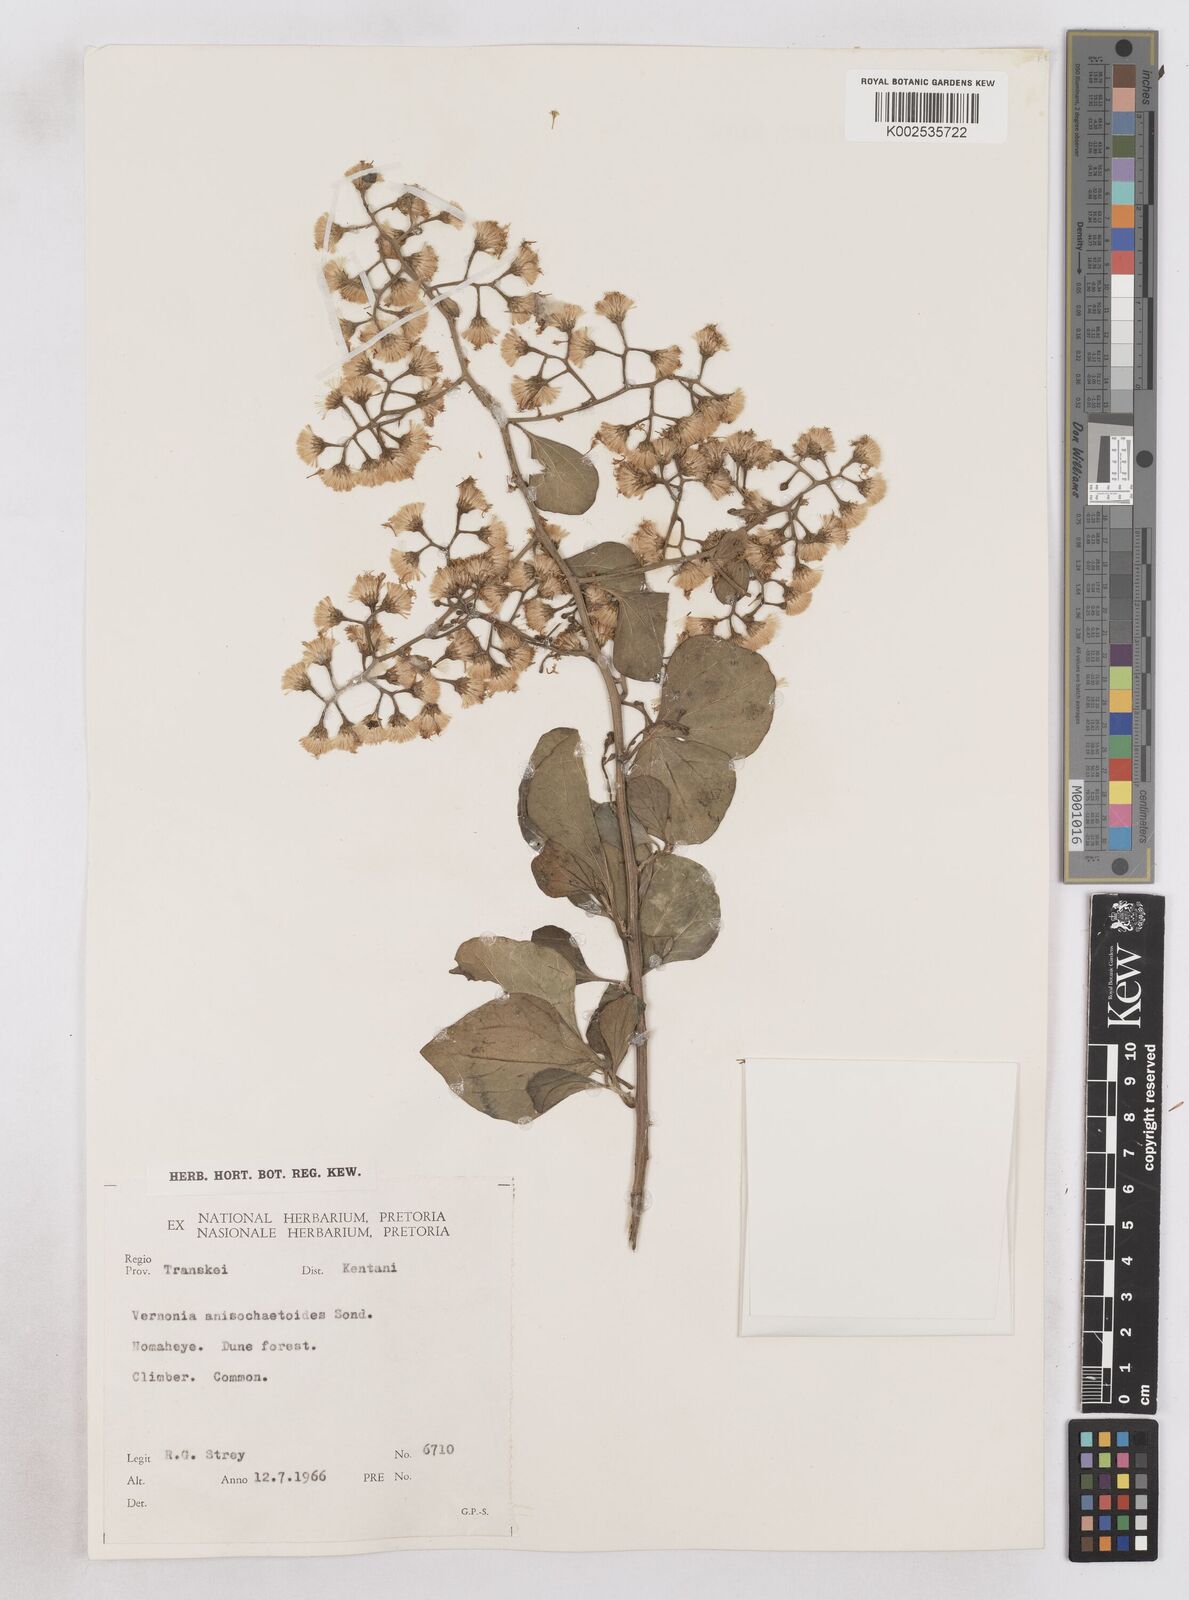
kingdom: Plantae
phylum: Tracheophyta
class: Magnoliopsida
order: Asterales
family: Asteraceae
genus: Distephanus
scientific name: Distephanus anisochaetoides
